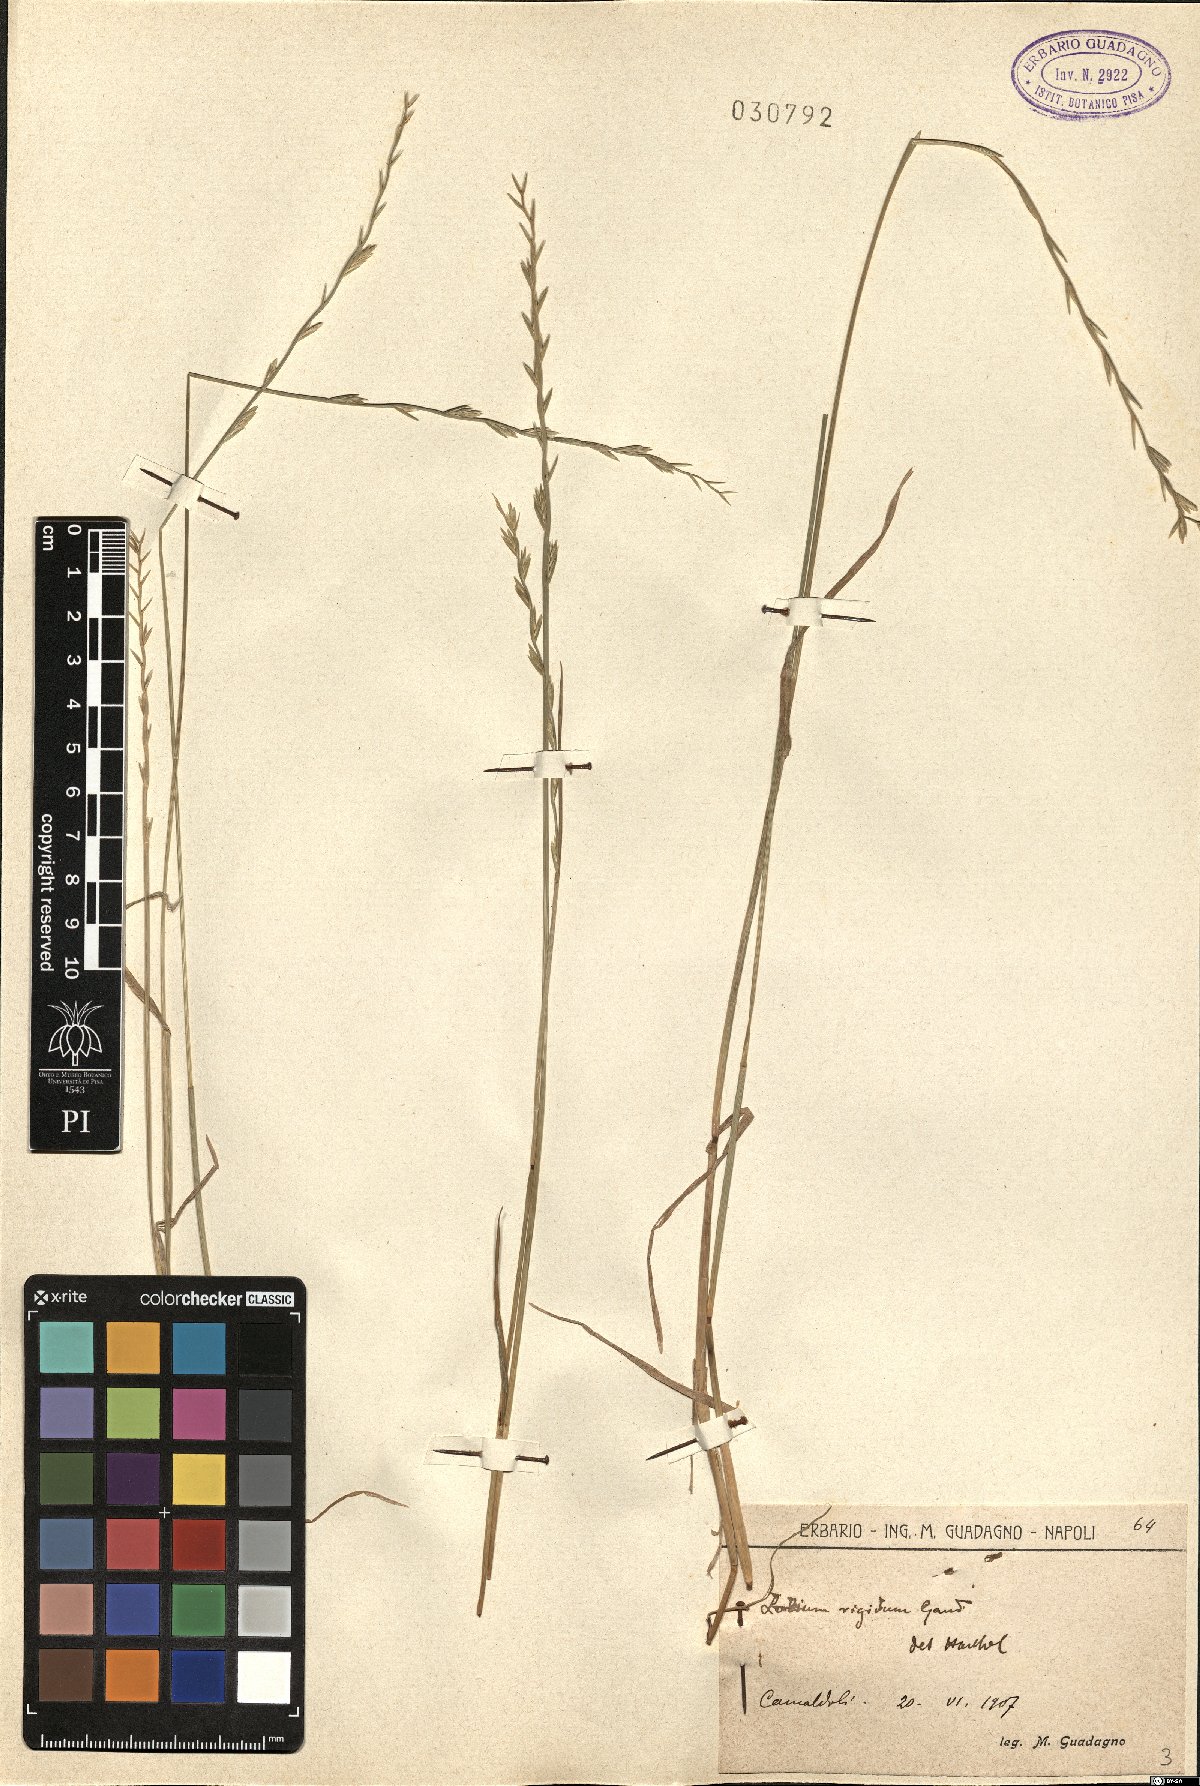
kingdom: Plantae
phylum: Tracheophyta
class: Liliopsida
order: Poales
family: Poaceae
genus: Lolium
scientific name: Lolium rigidum
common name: Wimmera ryegrass
